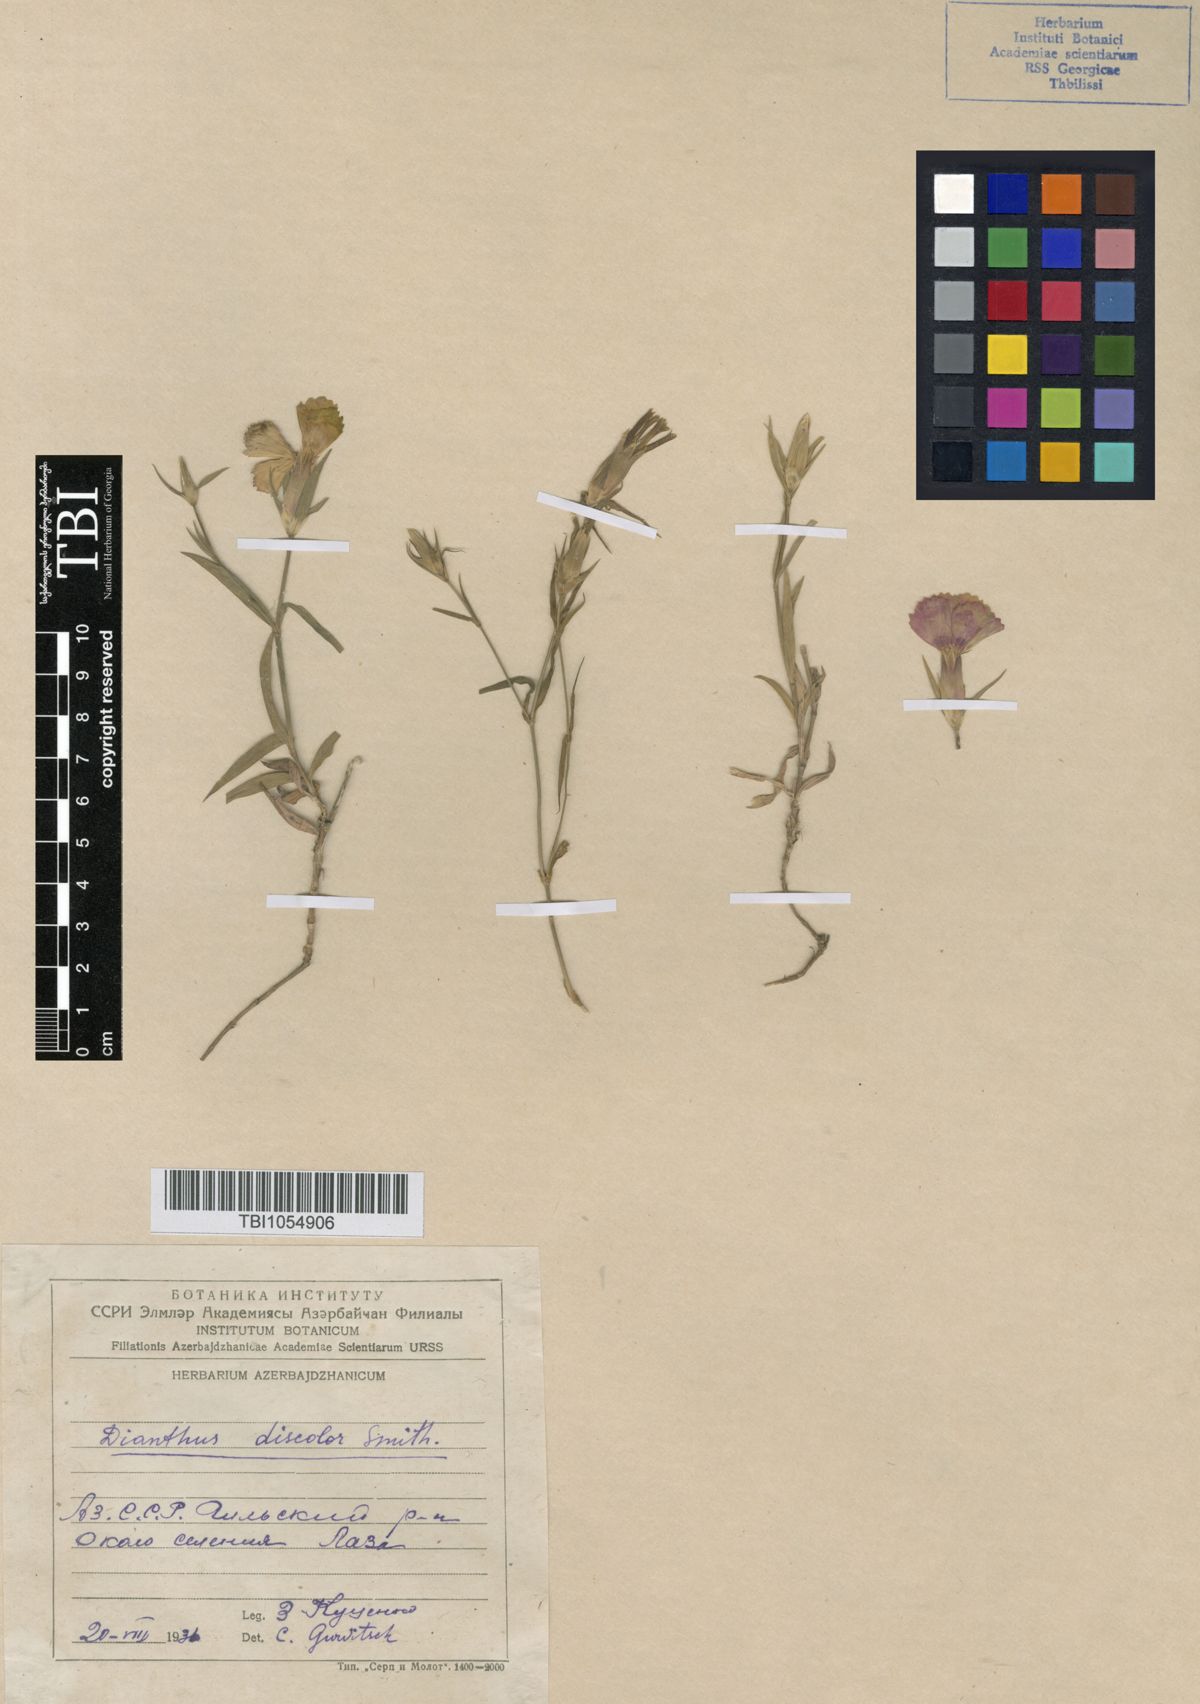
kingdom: Plantae
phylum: Tracheophyta
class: Magnoliopsida
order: Caryophyllales
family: Caryophyllaceae
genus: Dianthus
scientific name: Dianthus caucaseus
